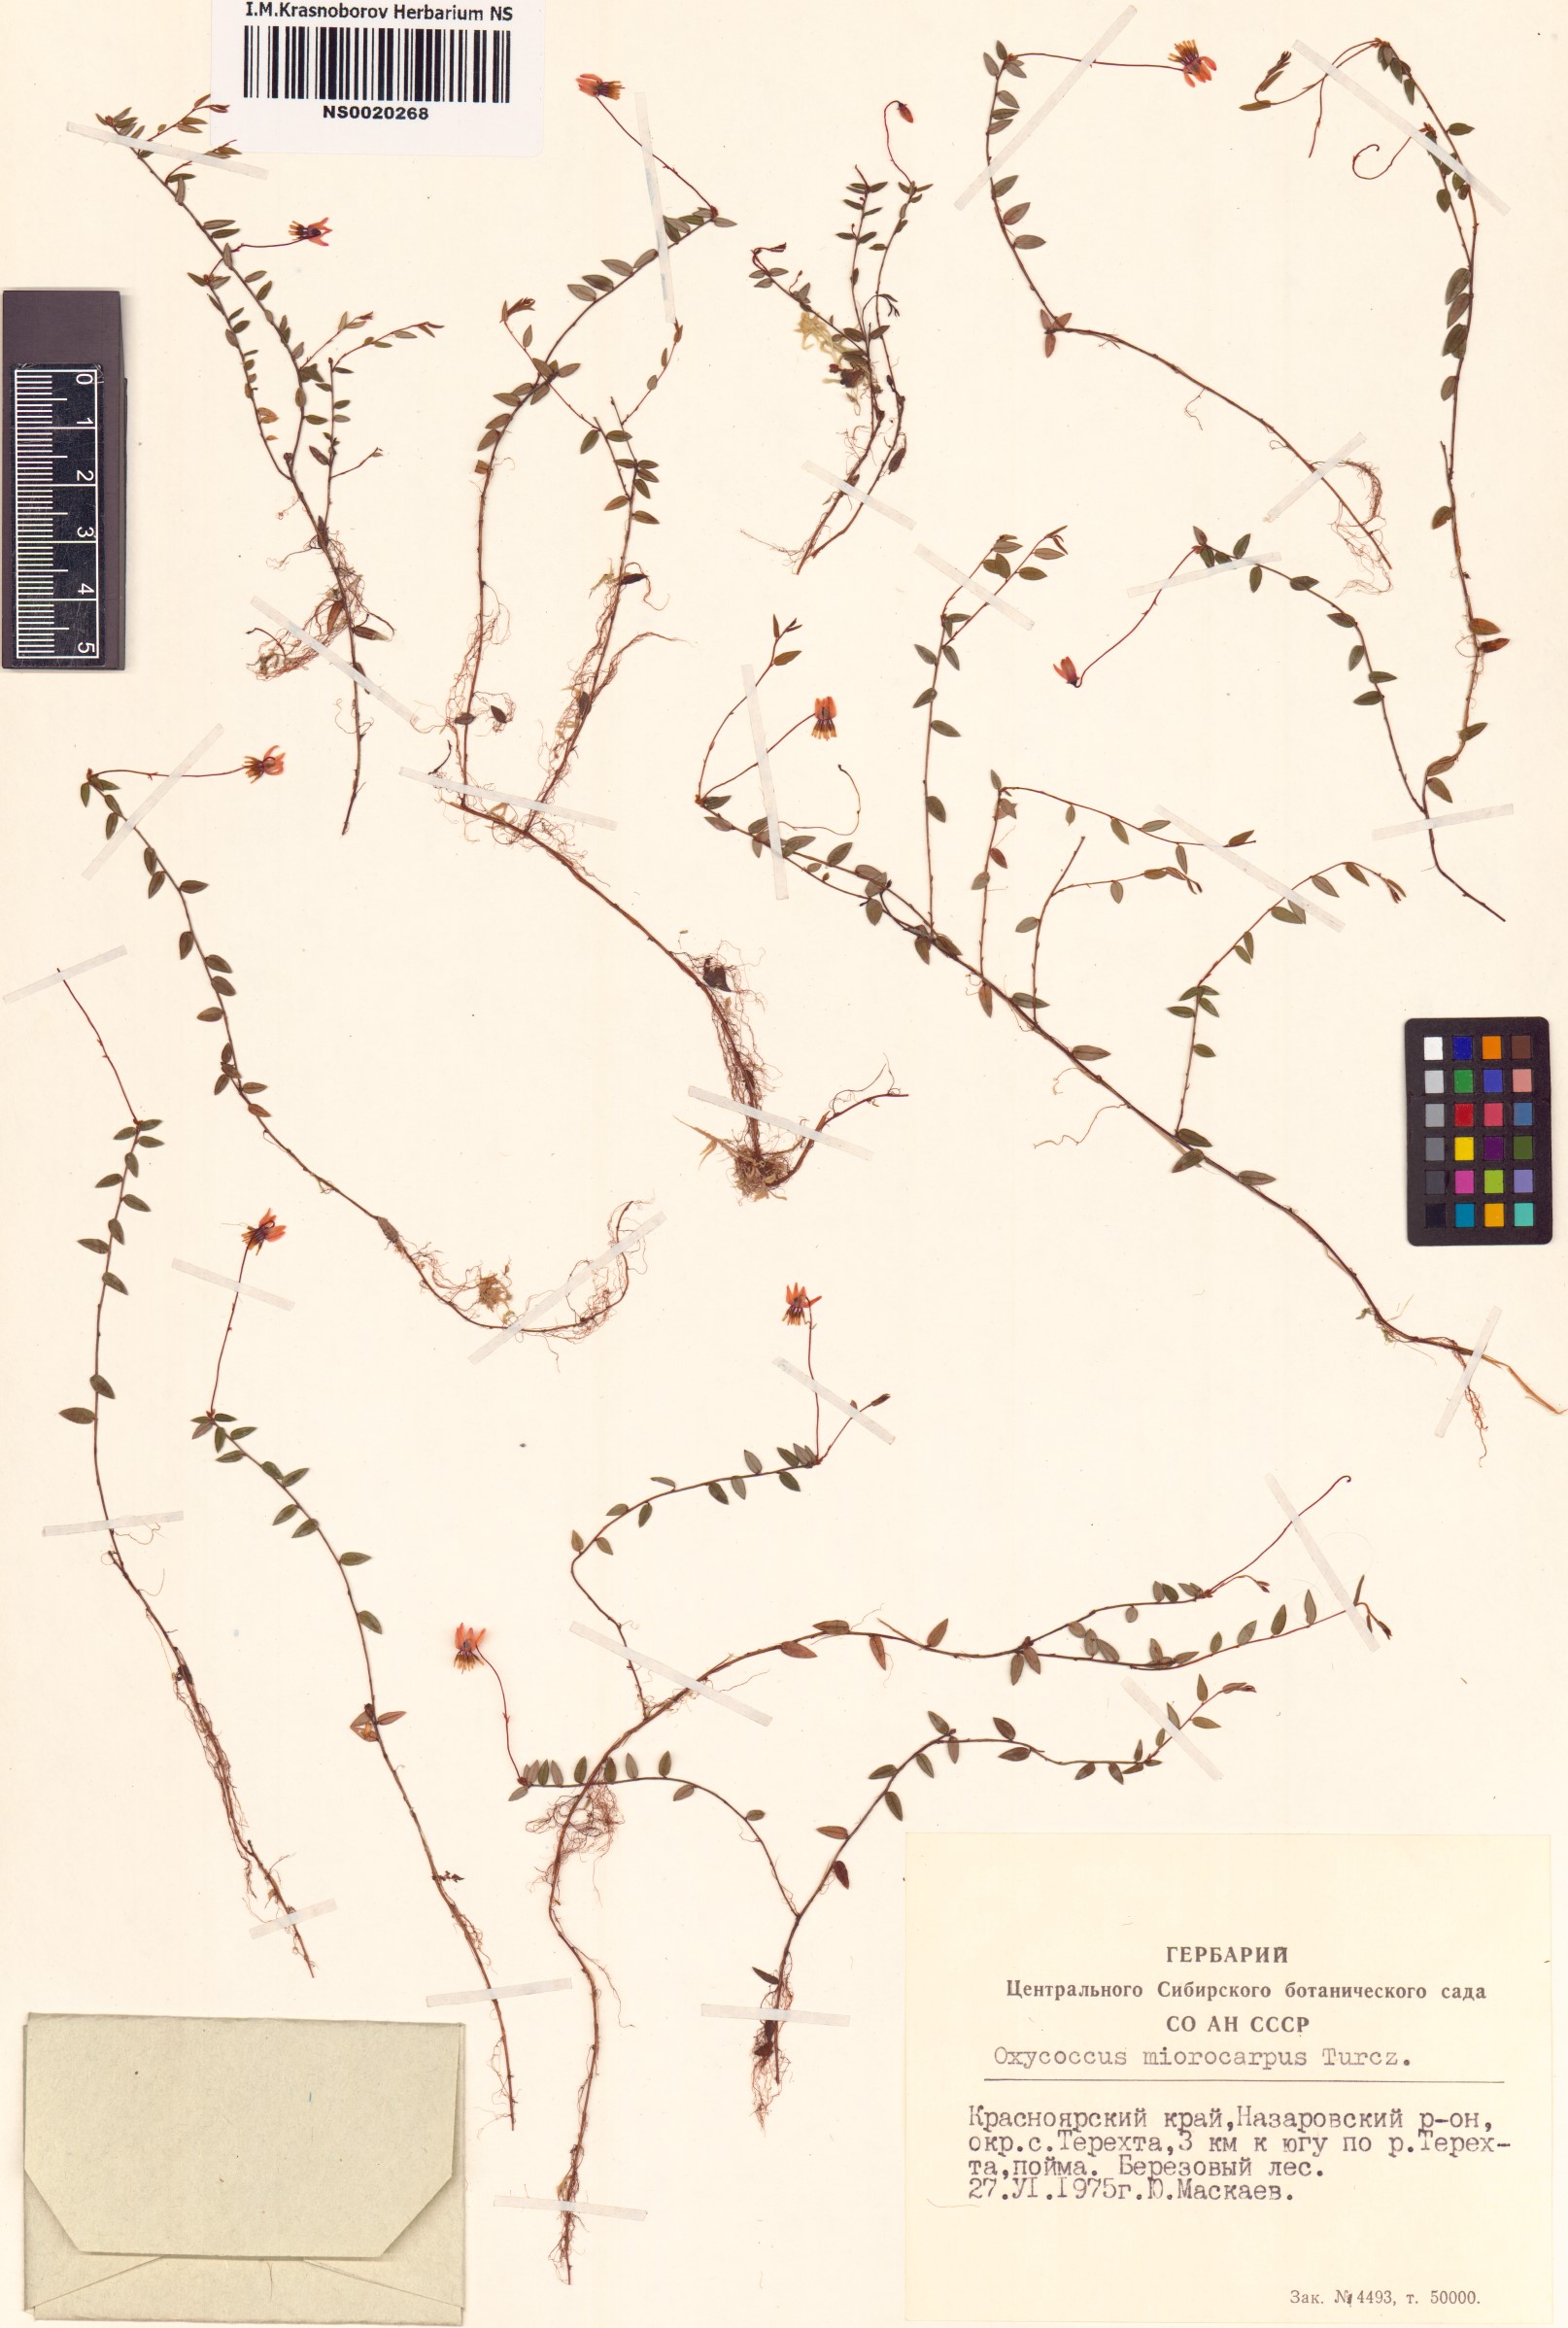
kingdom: Plantae
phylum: Tracheophyta
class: Magnoliopsida
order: Ericales
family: Ericaceae
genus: Vaccinium
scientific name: Vaccinium microcarpum
